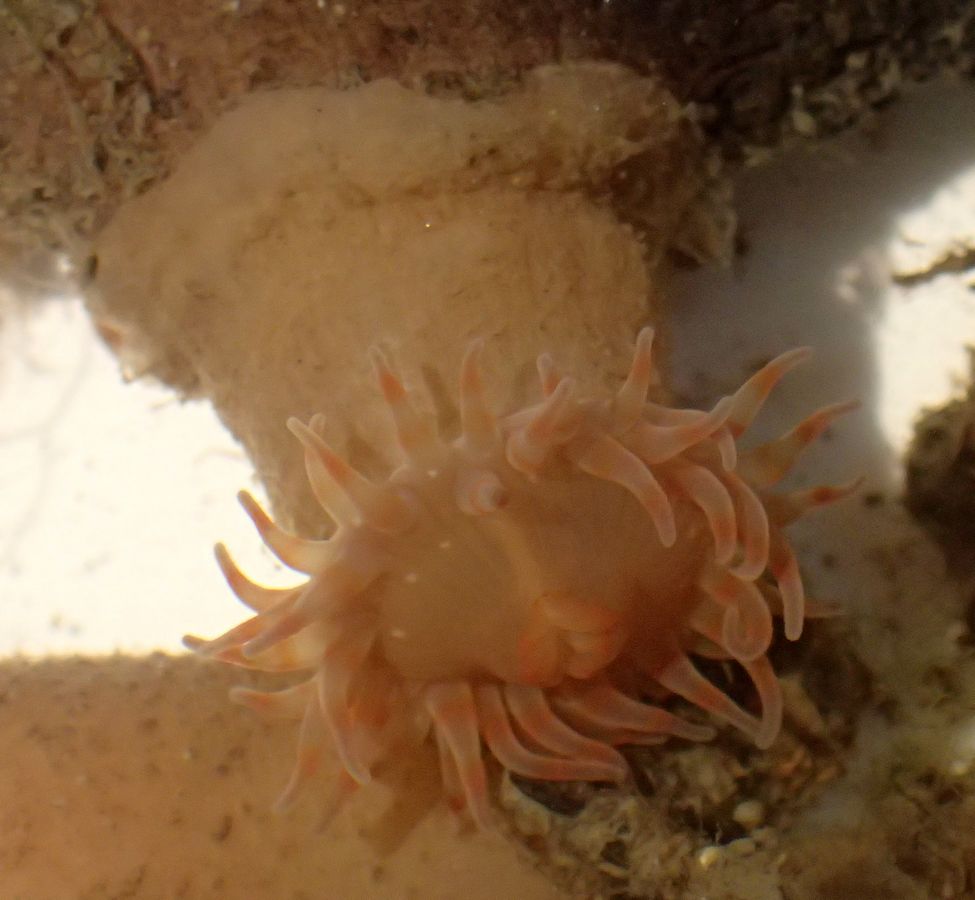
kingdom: Animalia
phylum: Cnidaria
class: Anthozoa
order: Actiniaria
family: Actinostolidae
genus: Stomphia
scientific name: Stomphia coccinea
